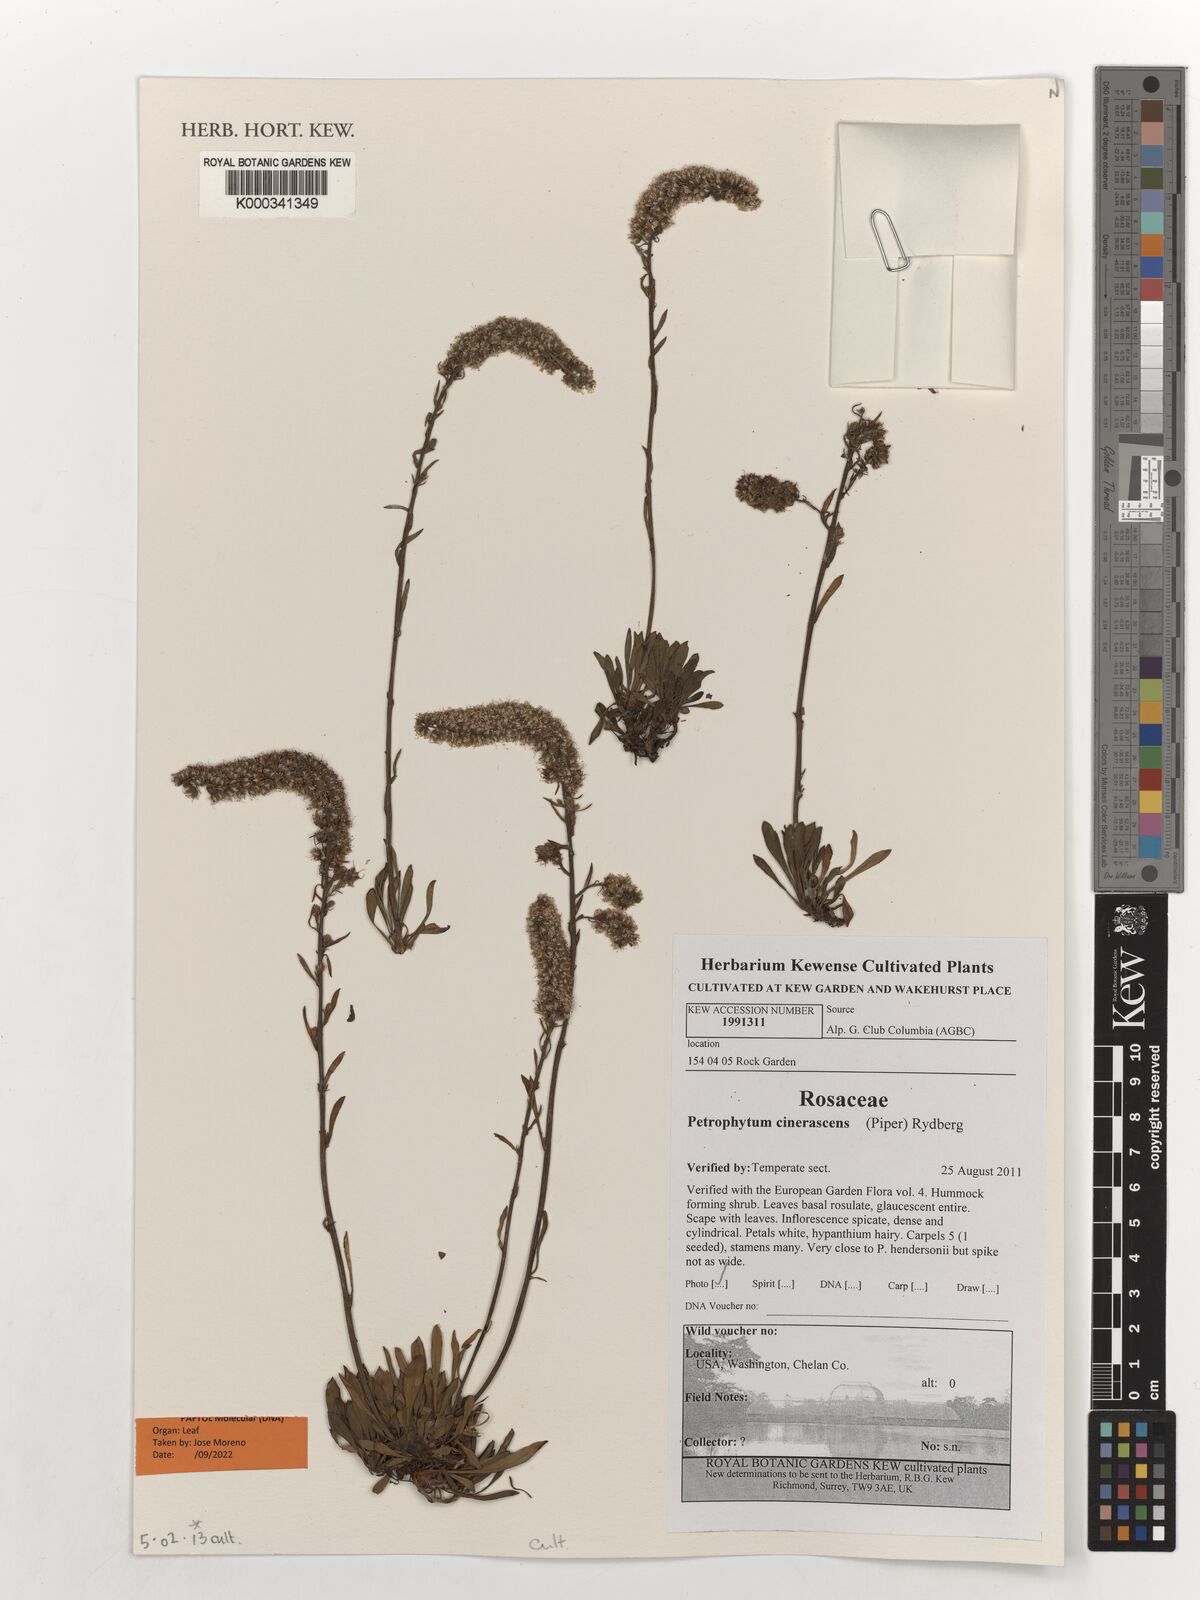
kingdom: Plantae
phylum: Tracheophyta
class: Magnoliopsida
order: Rosales
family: Rosaceae
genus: Petrophytum
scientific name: Petrophytum cinerascens
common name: Chelan rockmat
